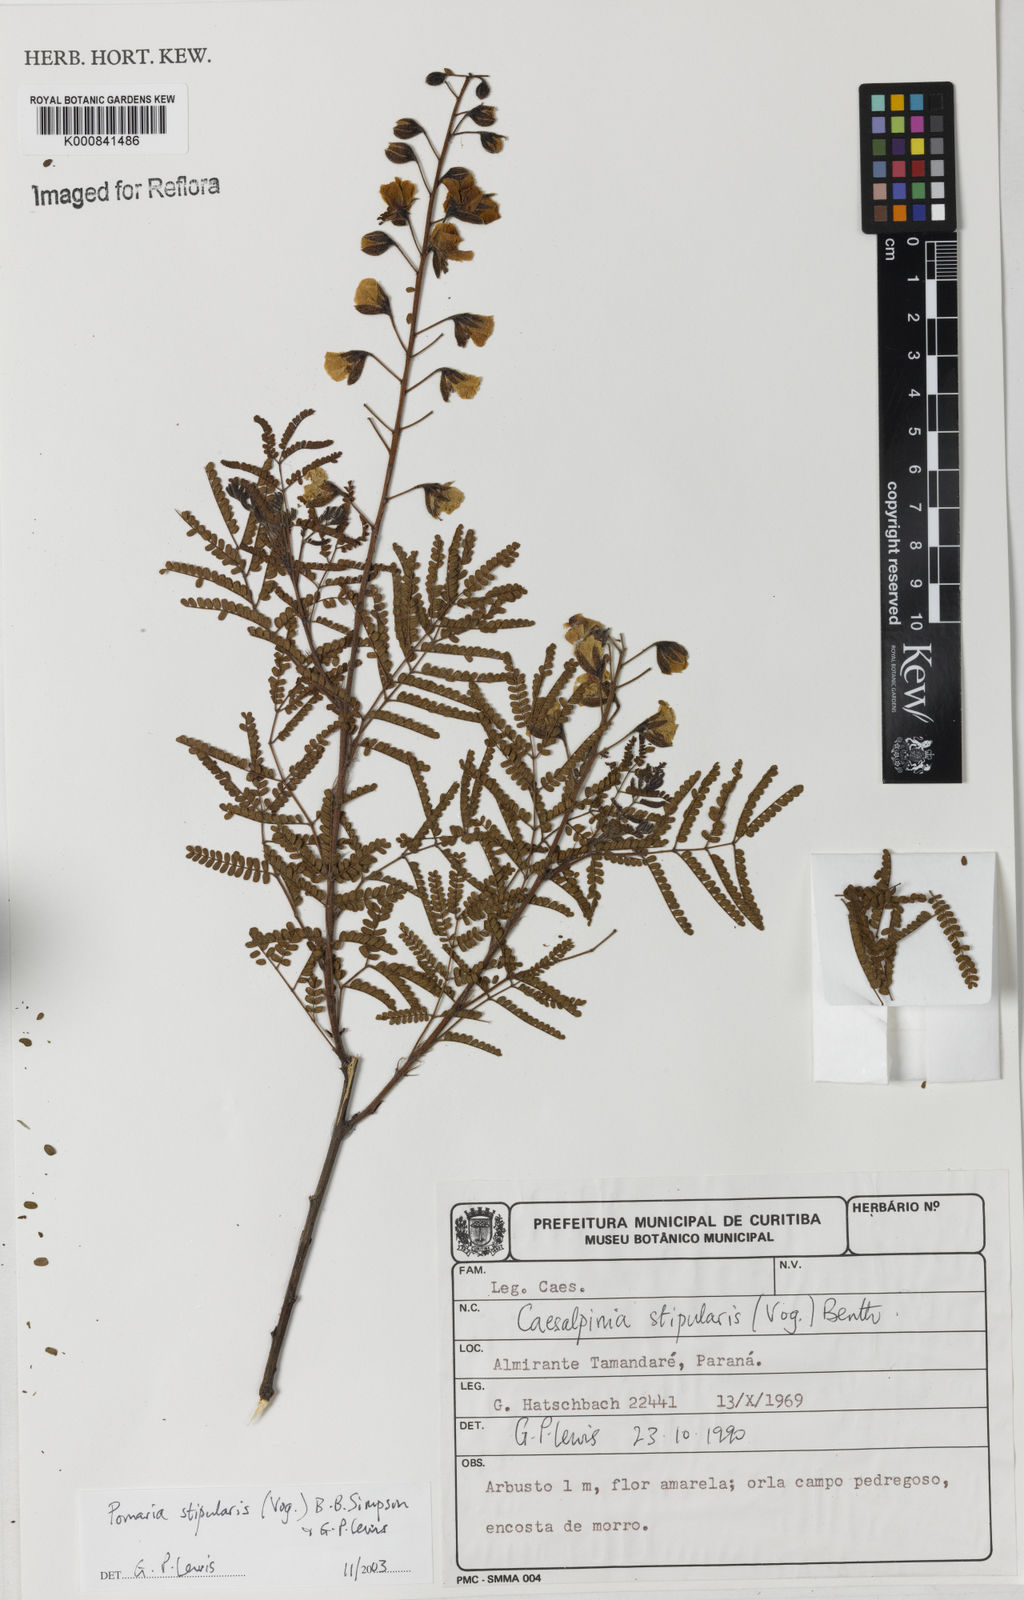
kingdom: Plantae
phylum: Tracheophyta
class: Magnoliopsida
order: Fabales
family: Fabaceae
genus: Pomaria
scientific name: Pomaria stipularis
